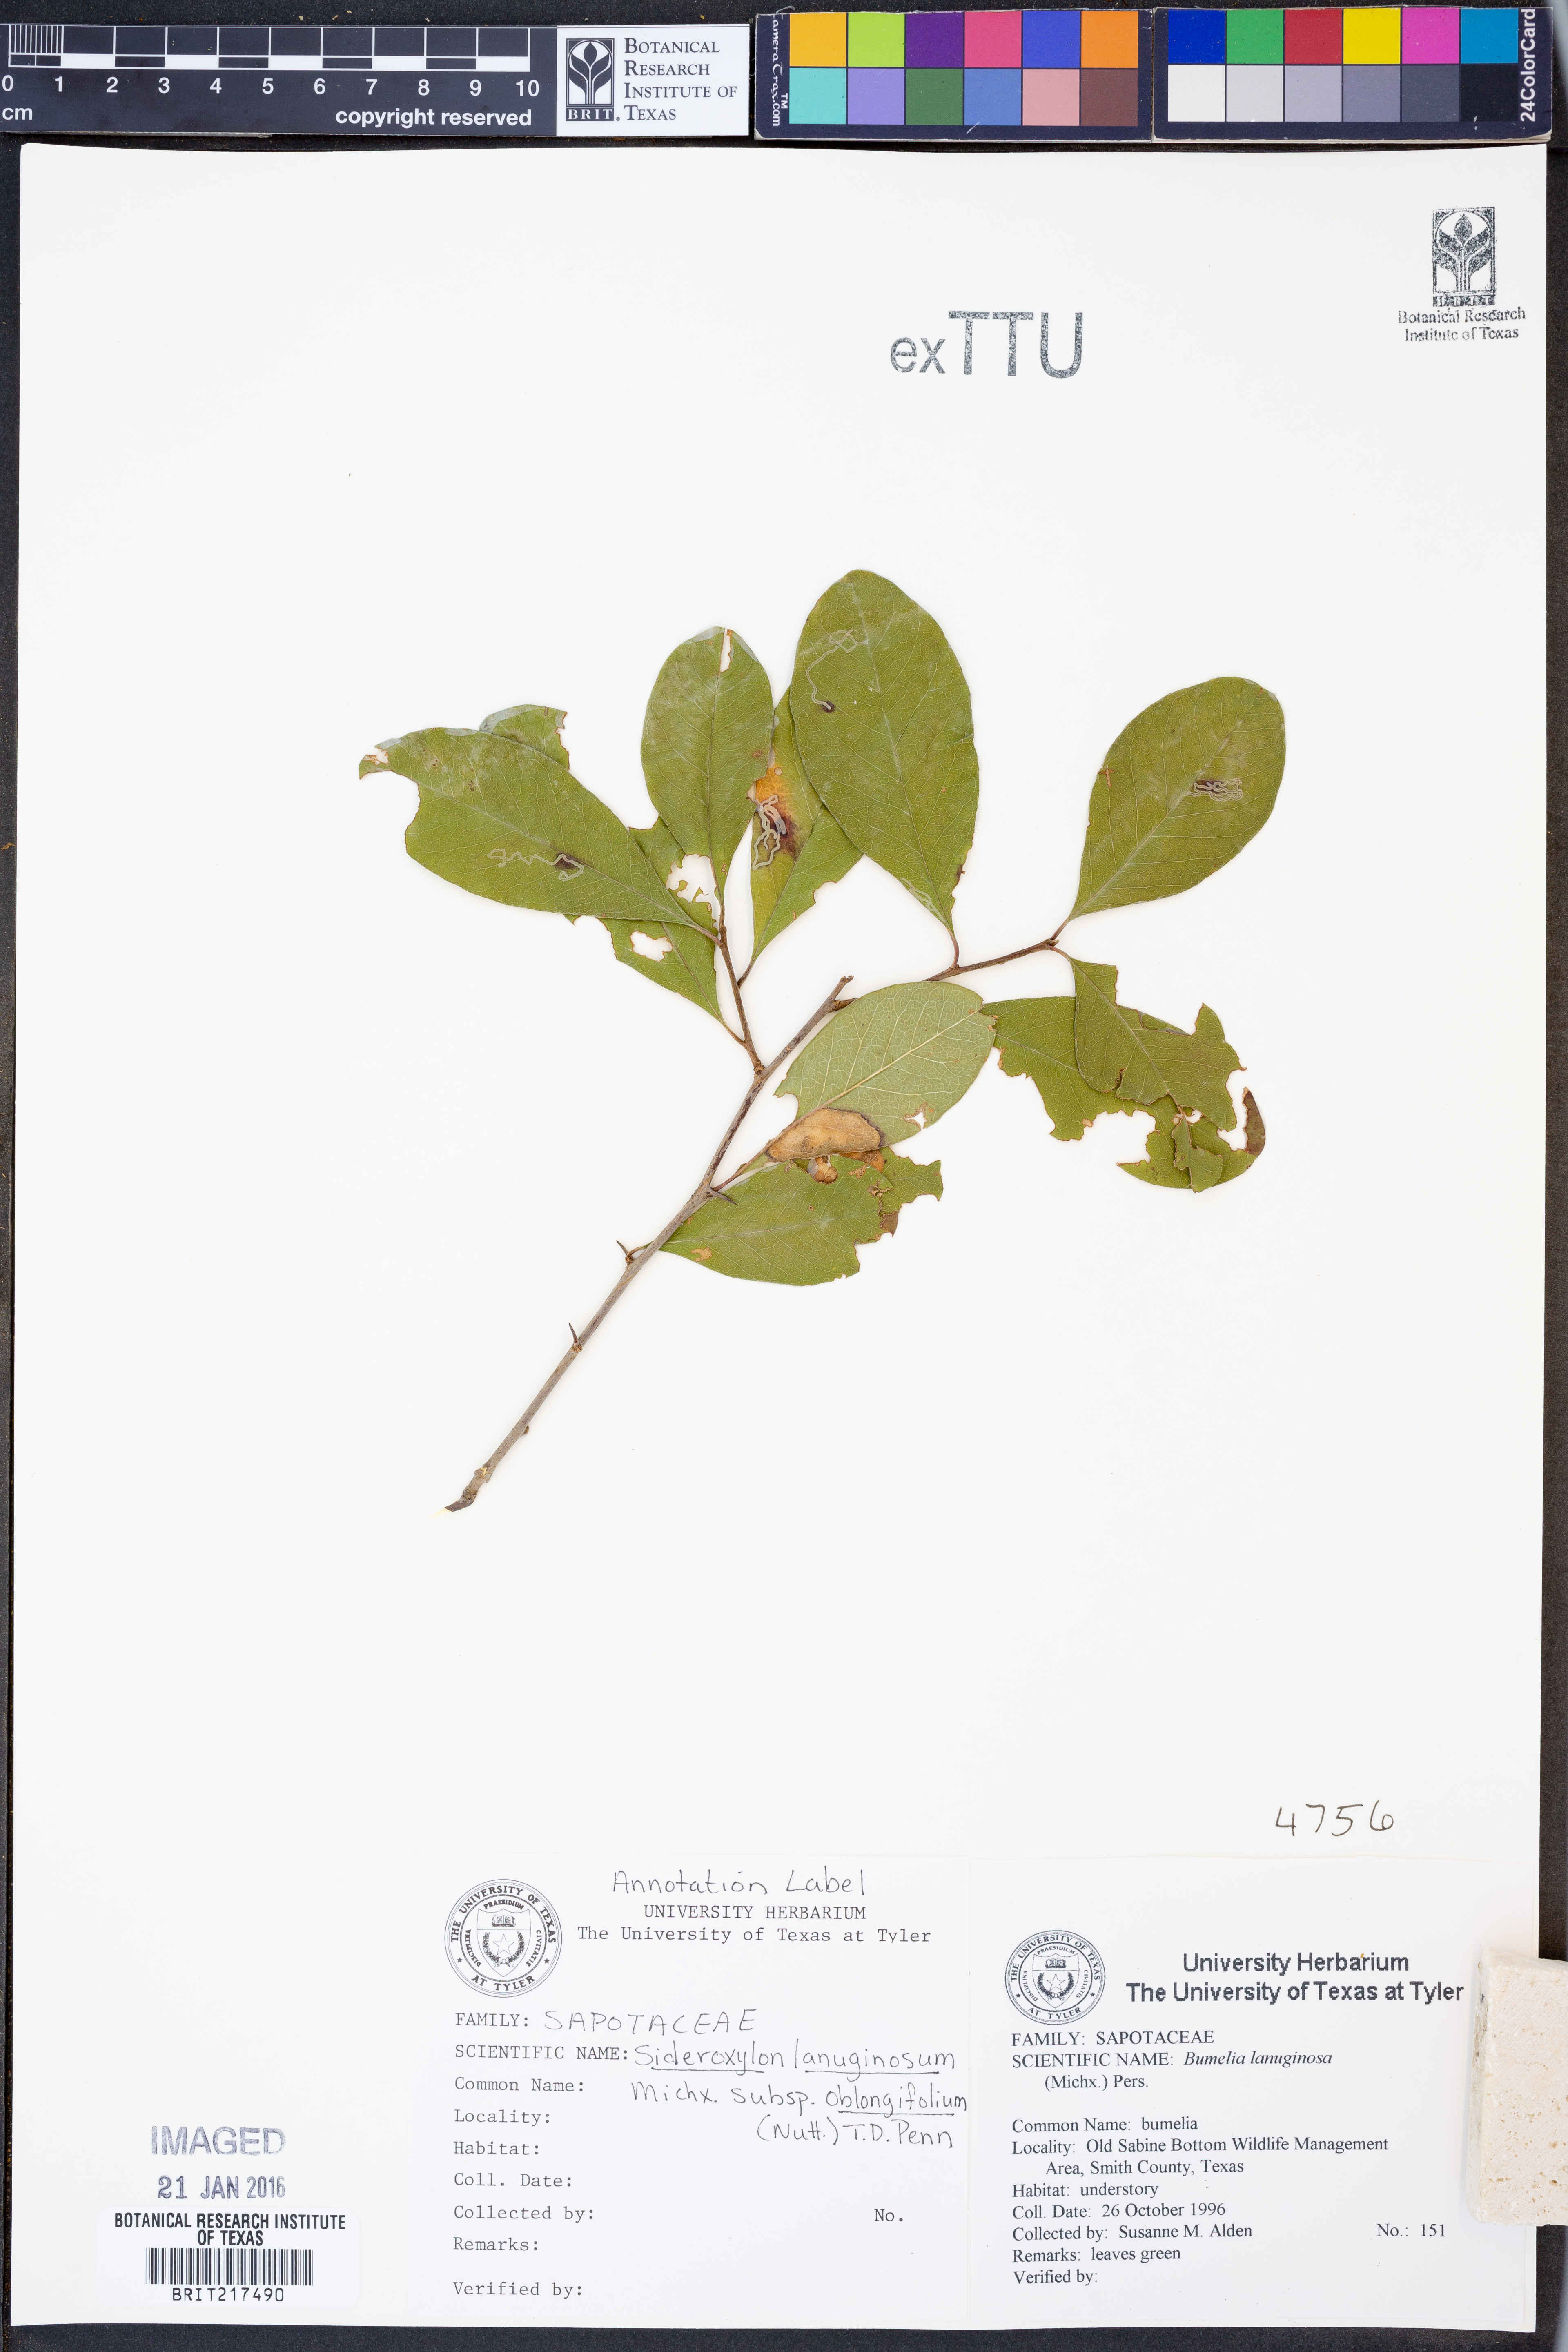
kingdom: Plantae
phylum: Tracheophyta
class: Magnoliopsida
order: Ericales
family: Sapotaceae
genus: Sideroxylon
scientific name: Sideroxylon lanuginosum
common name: Chittamwood
